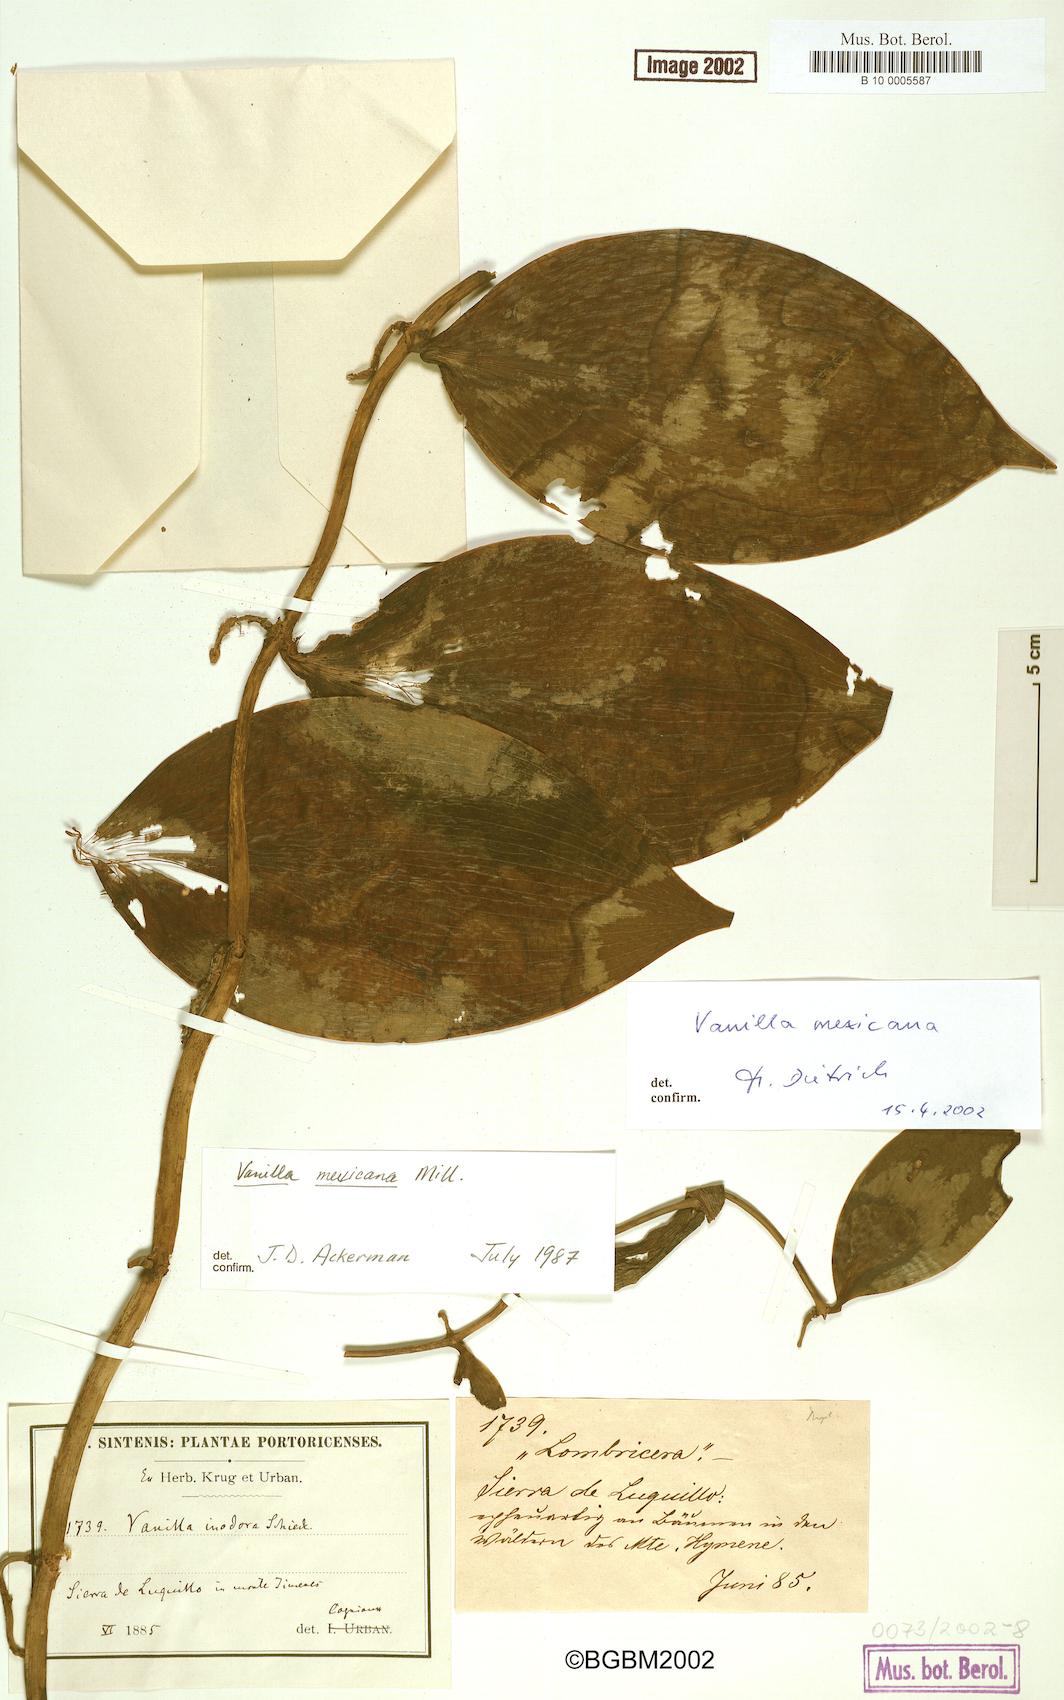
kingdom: Plantae
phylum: Tracheophyta
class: Liliopsida
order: Asparagales
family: Orchidaceae
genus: Vanilla
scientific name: Vanilla mexicana
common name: Mexican vanilla
